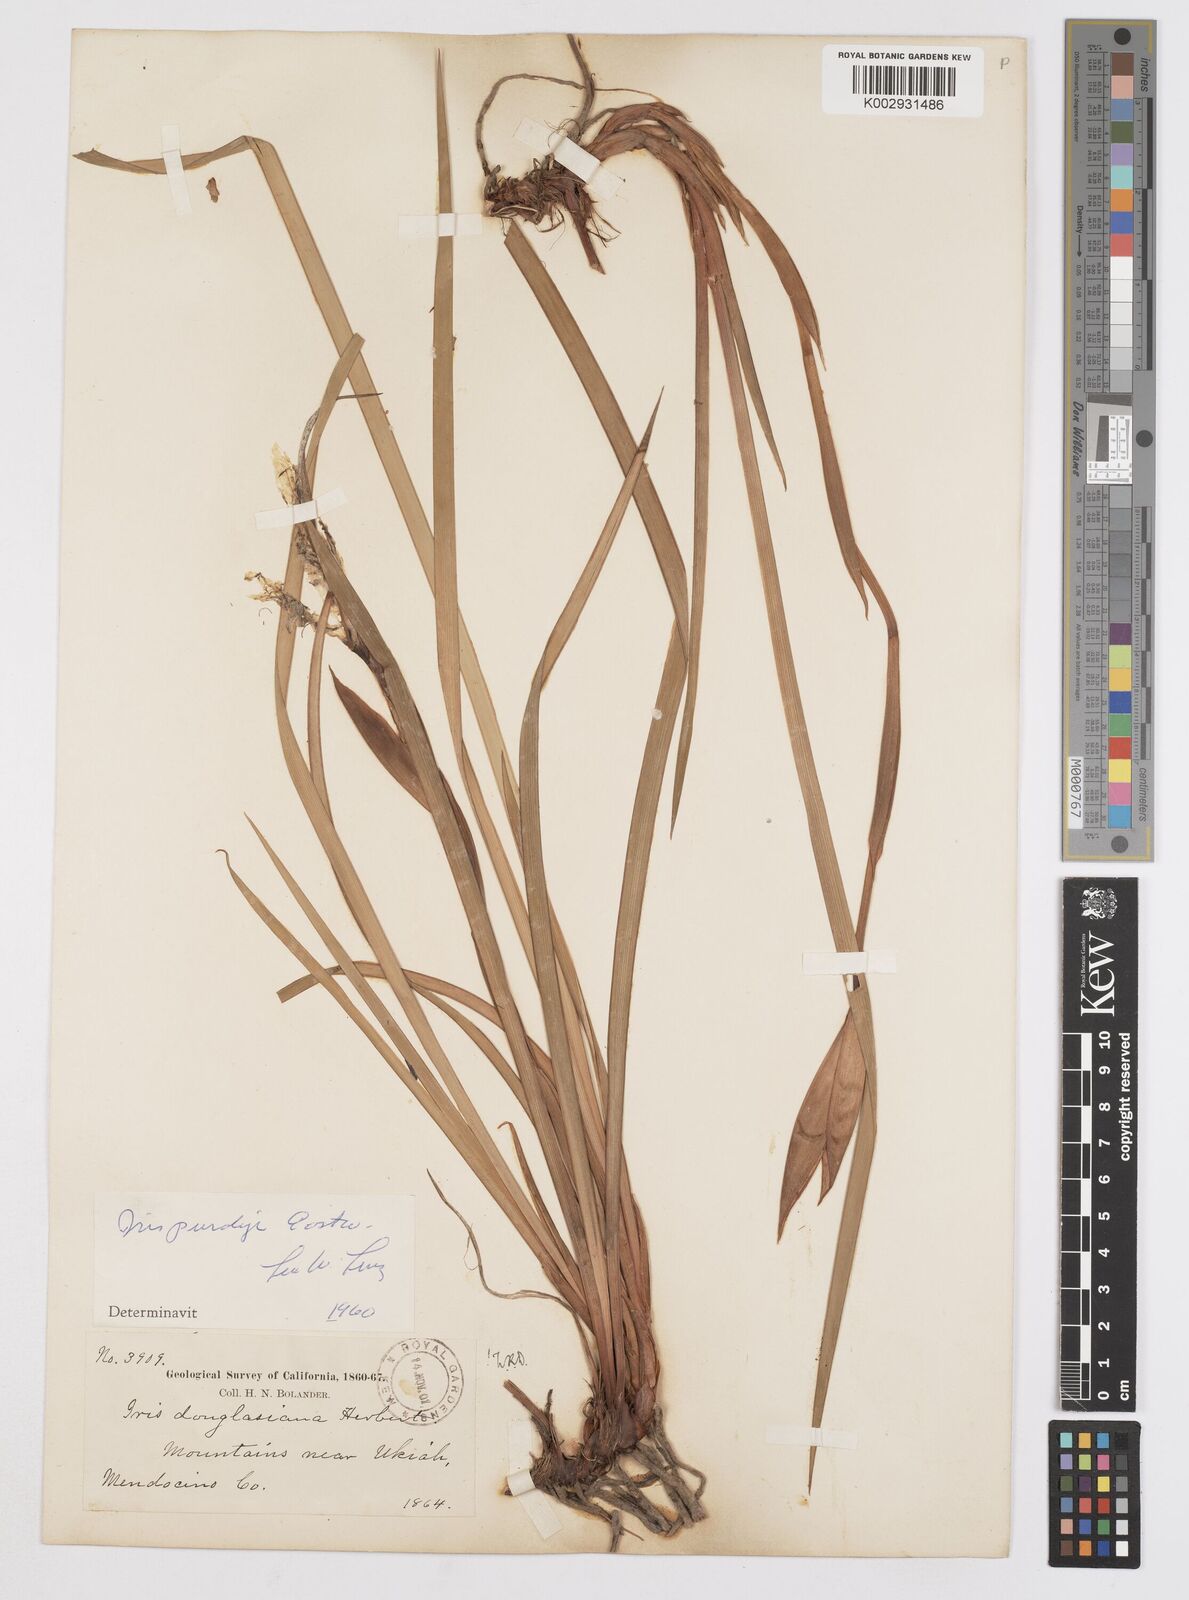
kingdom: Plantae
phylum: Tracheophyta
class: Liliopsida
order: Asparagales
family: Iridaceae
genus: Iris
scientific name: Iris purdyi
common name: Purdy's iris
